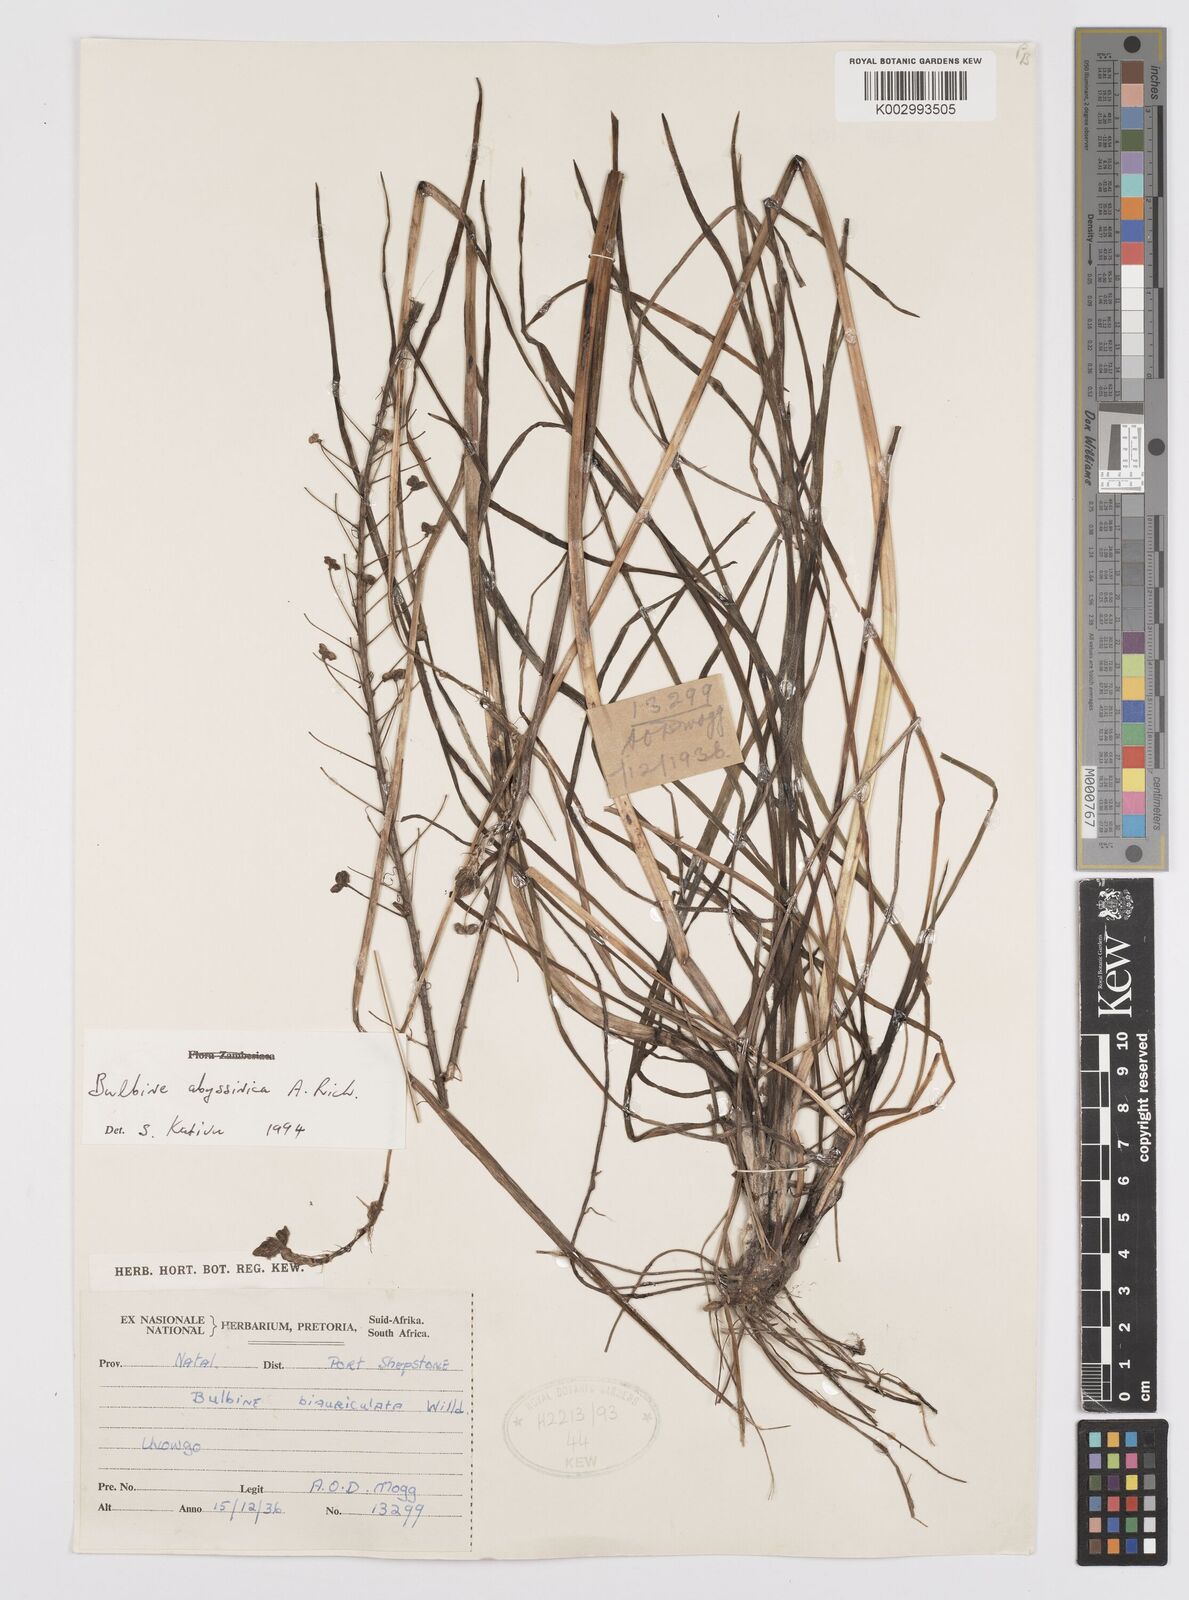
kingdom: Plantae
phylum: Tracheophyta
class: Liliopsida
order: Asparagales
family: Asphodelaceae
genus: Bulbine
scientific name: Bulbine abyssinica
